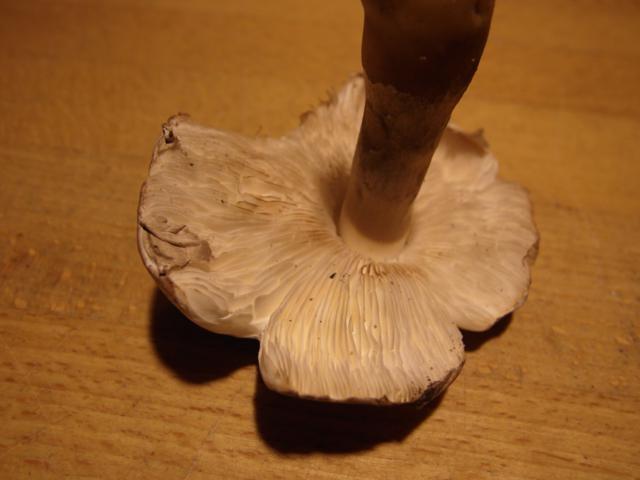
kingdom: Fungi
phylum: Basidiomycota
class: Agaricomycetes
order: Agaricales
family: Agaricaceae
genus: Leucoagaricus
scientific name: Leucoagaricus carneifolius
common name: grånende silkehat
